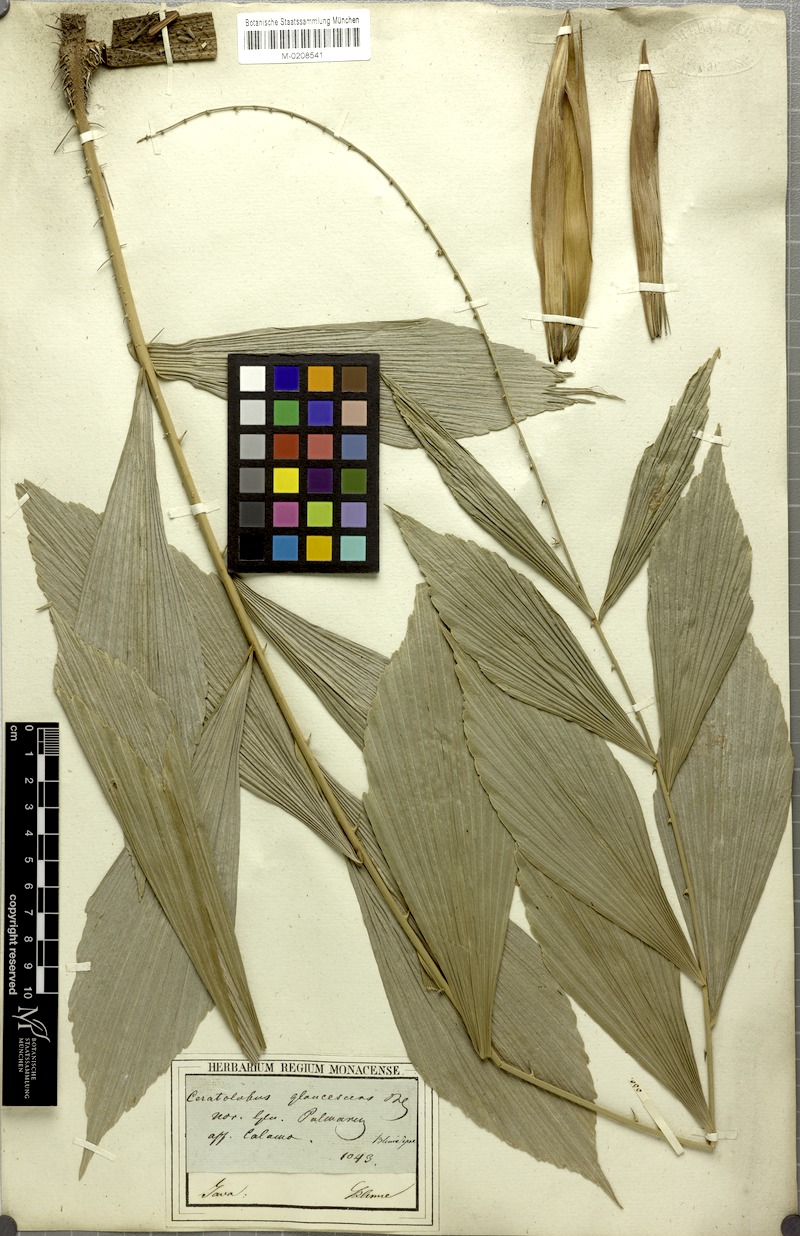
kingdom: Plantae
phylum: Tracheophyta
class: Liliopsida
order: Arecales
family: Arecaceae
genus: Calamus
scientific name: Calamus glaucescens
